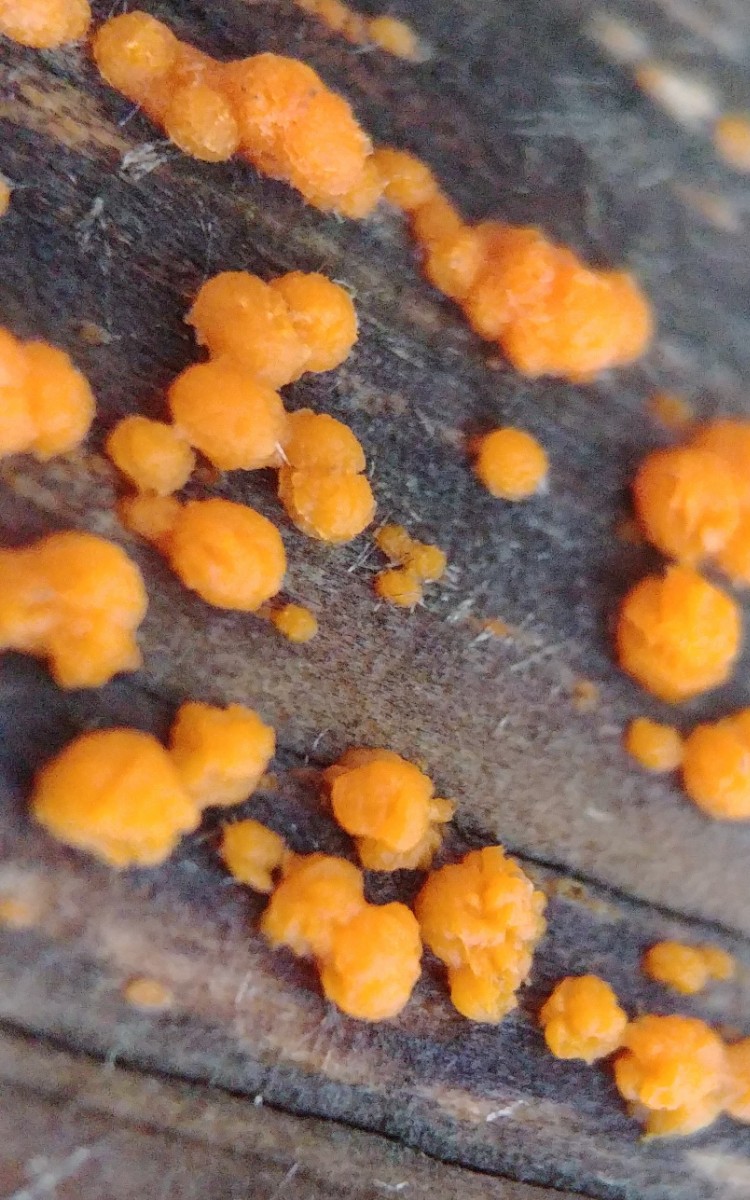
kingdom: Fungi
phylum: Basidiomycota
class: Dacrymycetes
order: Dacrymycetales
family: Dacrymycetaceae
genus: Dacrymyces
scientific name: Dacrymyces stillatus
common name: almindelig tåresvamp
